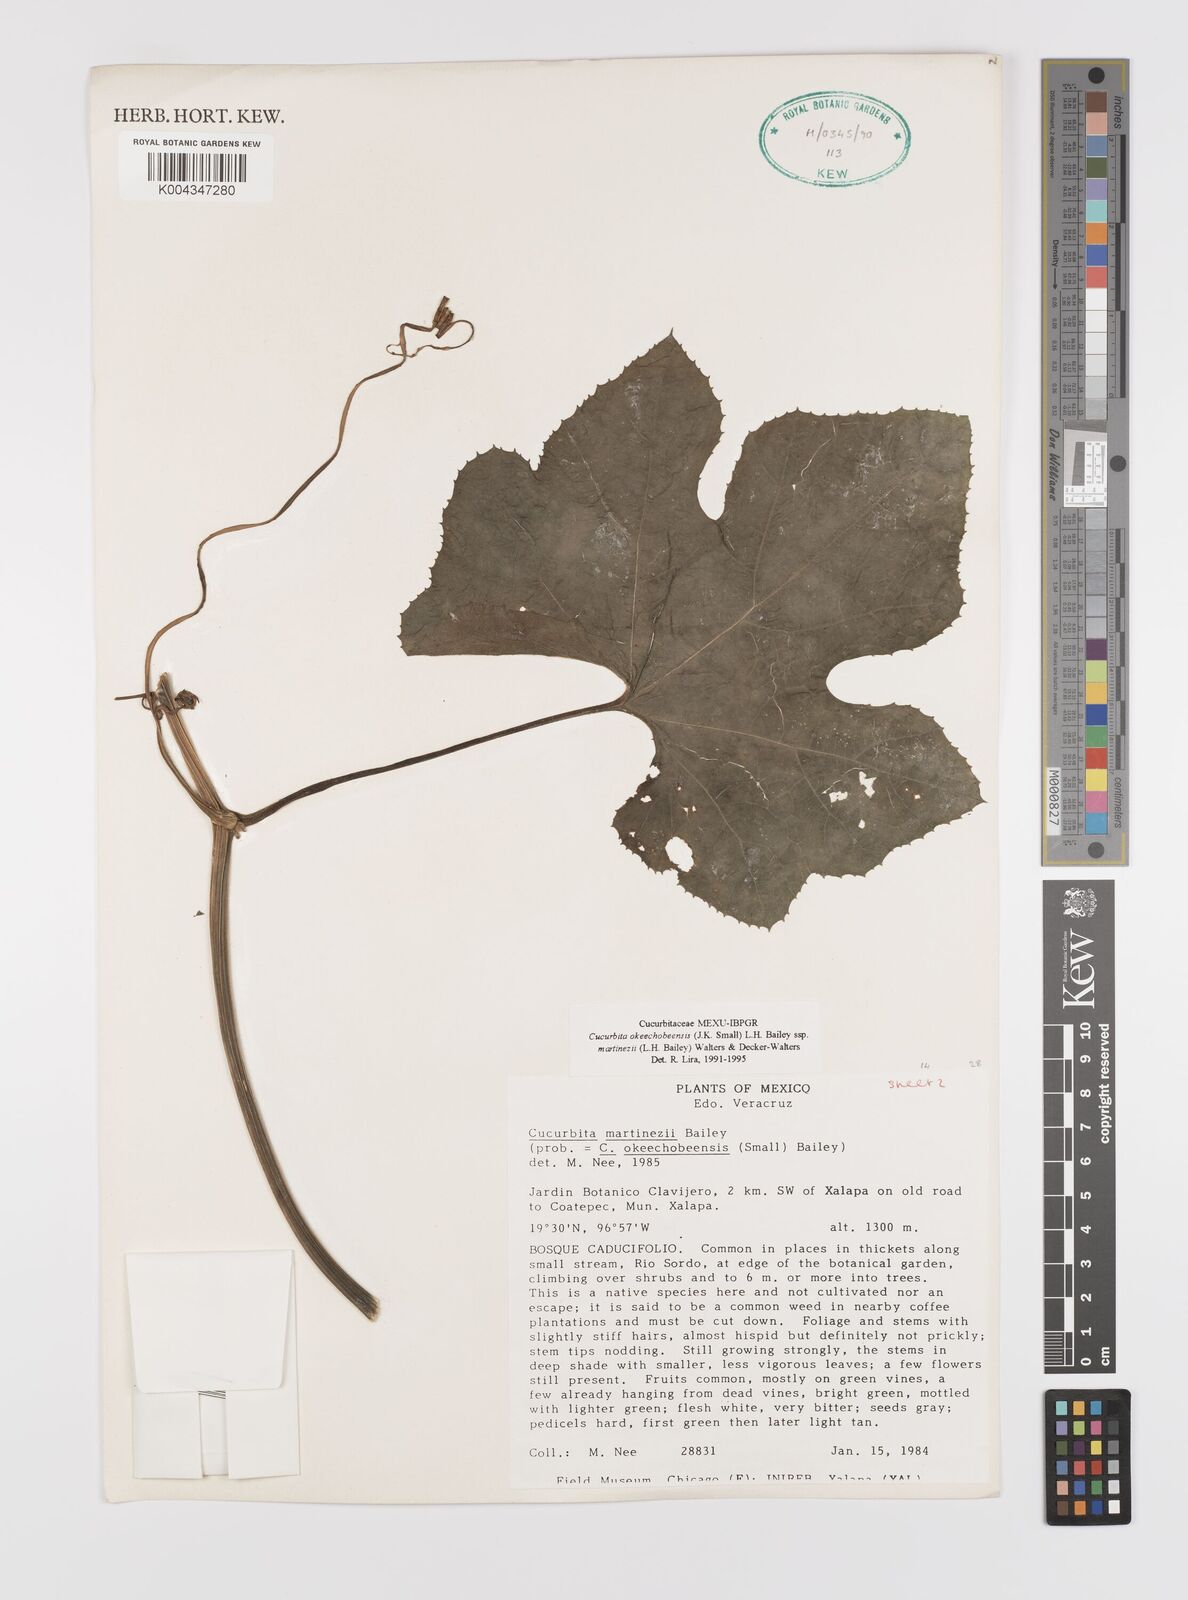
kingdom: Plantae
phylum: Tracheophyta
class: Magnoliopsida
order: Cucurbitales
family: Cucurbitaceae
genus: Cucurbita
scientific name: Cucurbita okeechobeensis
